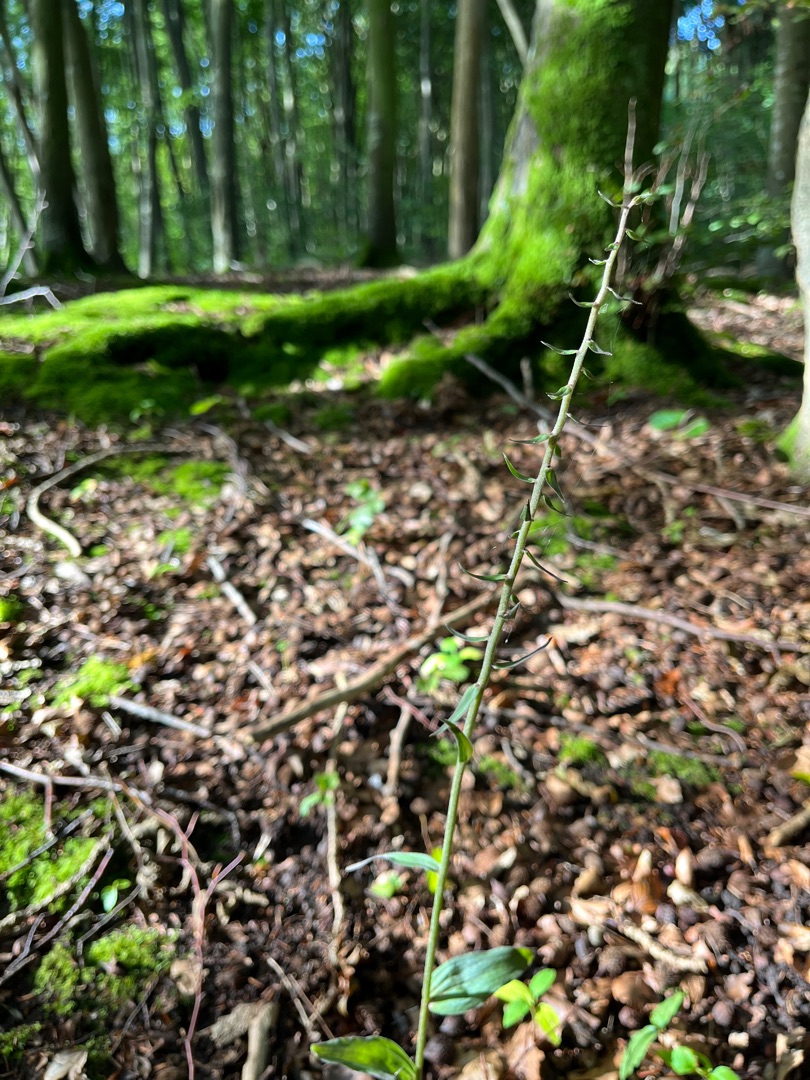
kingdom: Plantae
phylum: Tracheophyta
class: Liliopsida
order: Asparagales
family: Orchidaceae
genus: Epipactis
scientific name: Epipactis purpurata
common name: Tætblomstret hullæbe
